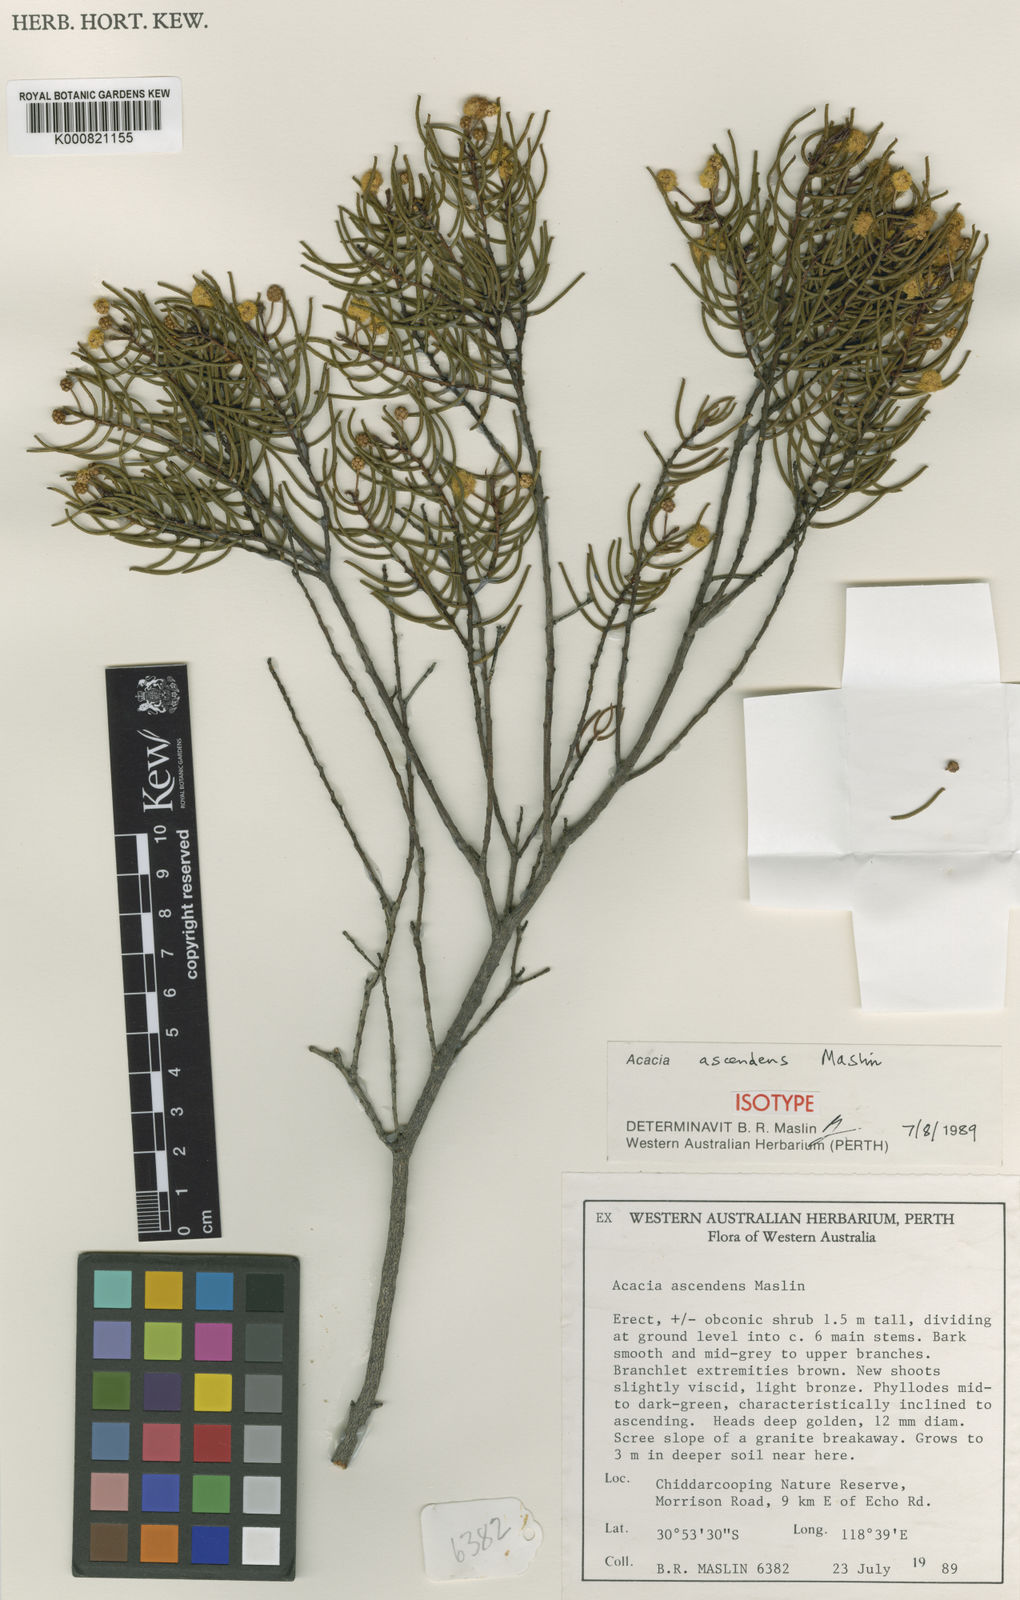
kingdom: Plantae
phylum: Tracheophyta
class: Magnoliopsida
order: Fabales
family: Fabaceae
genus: Acacia
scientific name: Acacia ascendens
